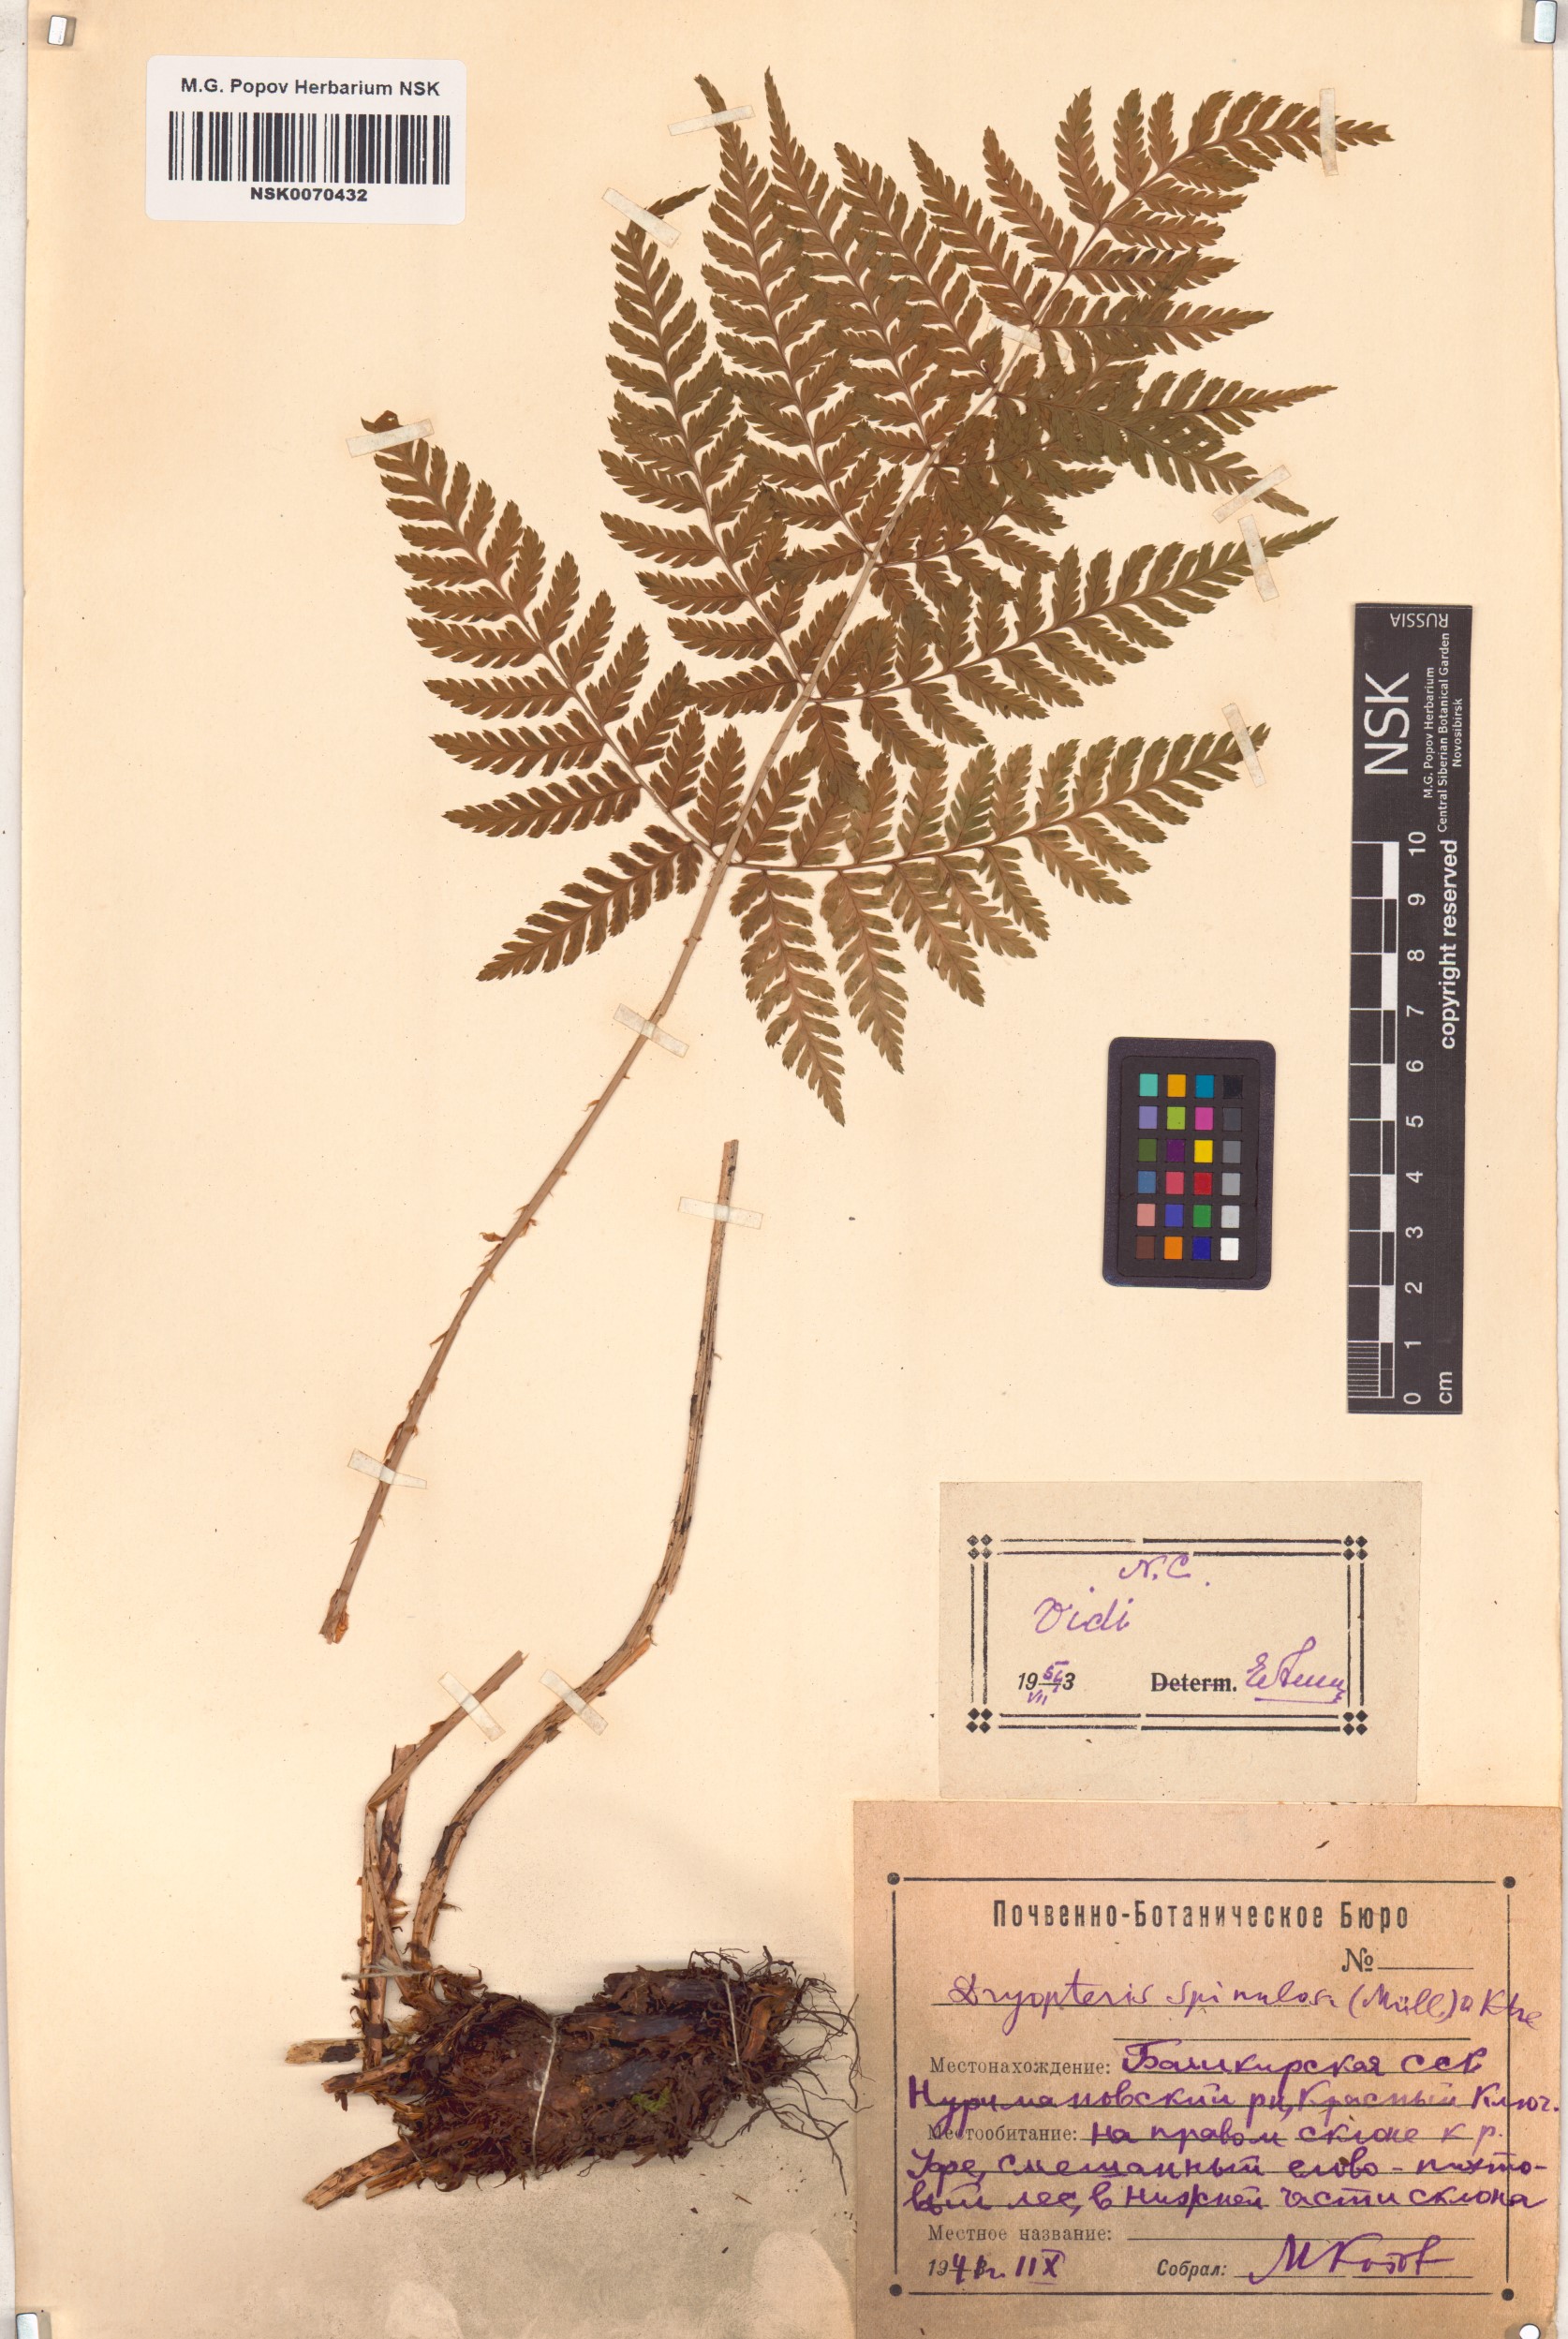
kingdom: Plantae
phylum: Tracheophyta
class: Polypodiopsida
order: Polypodiales
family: Dryopteridaceae
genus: Dryopteris
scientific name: Dryopteris carthusiana
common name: Narrow buckler-fern
